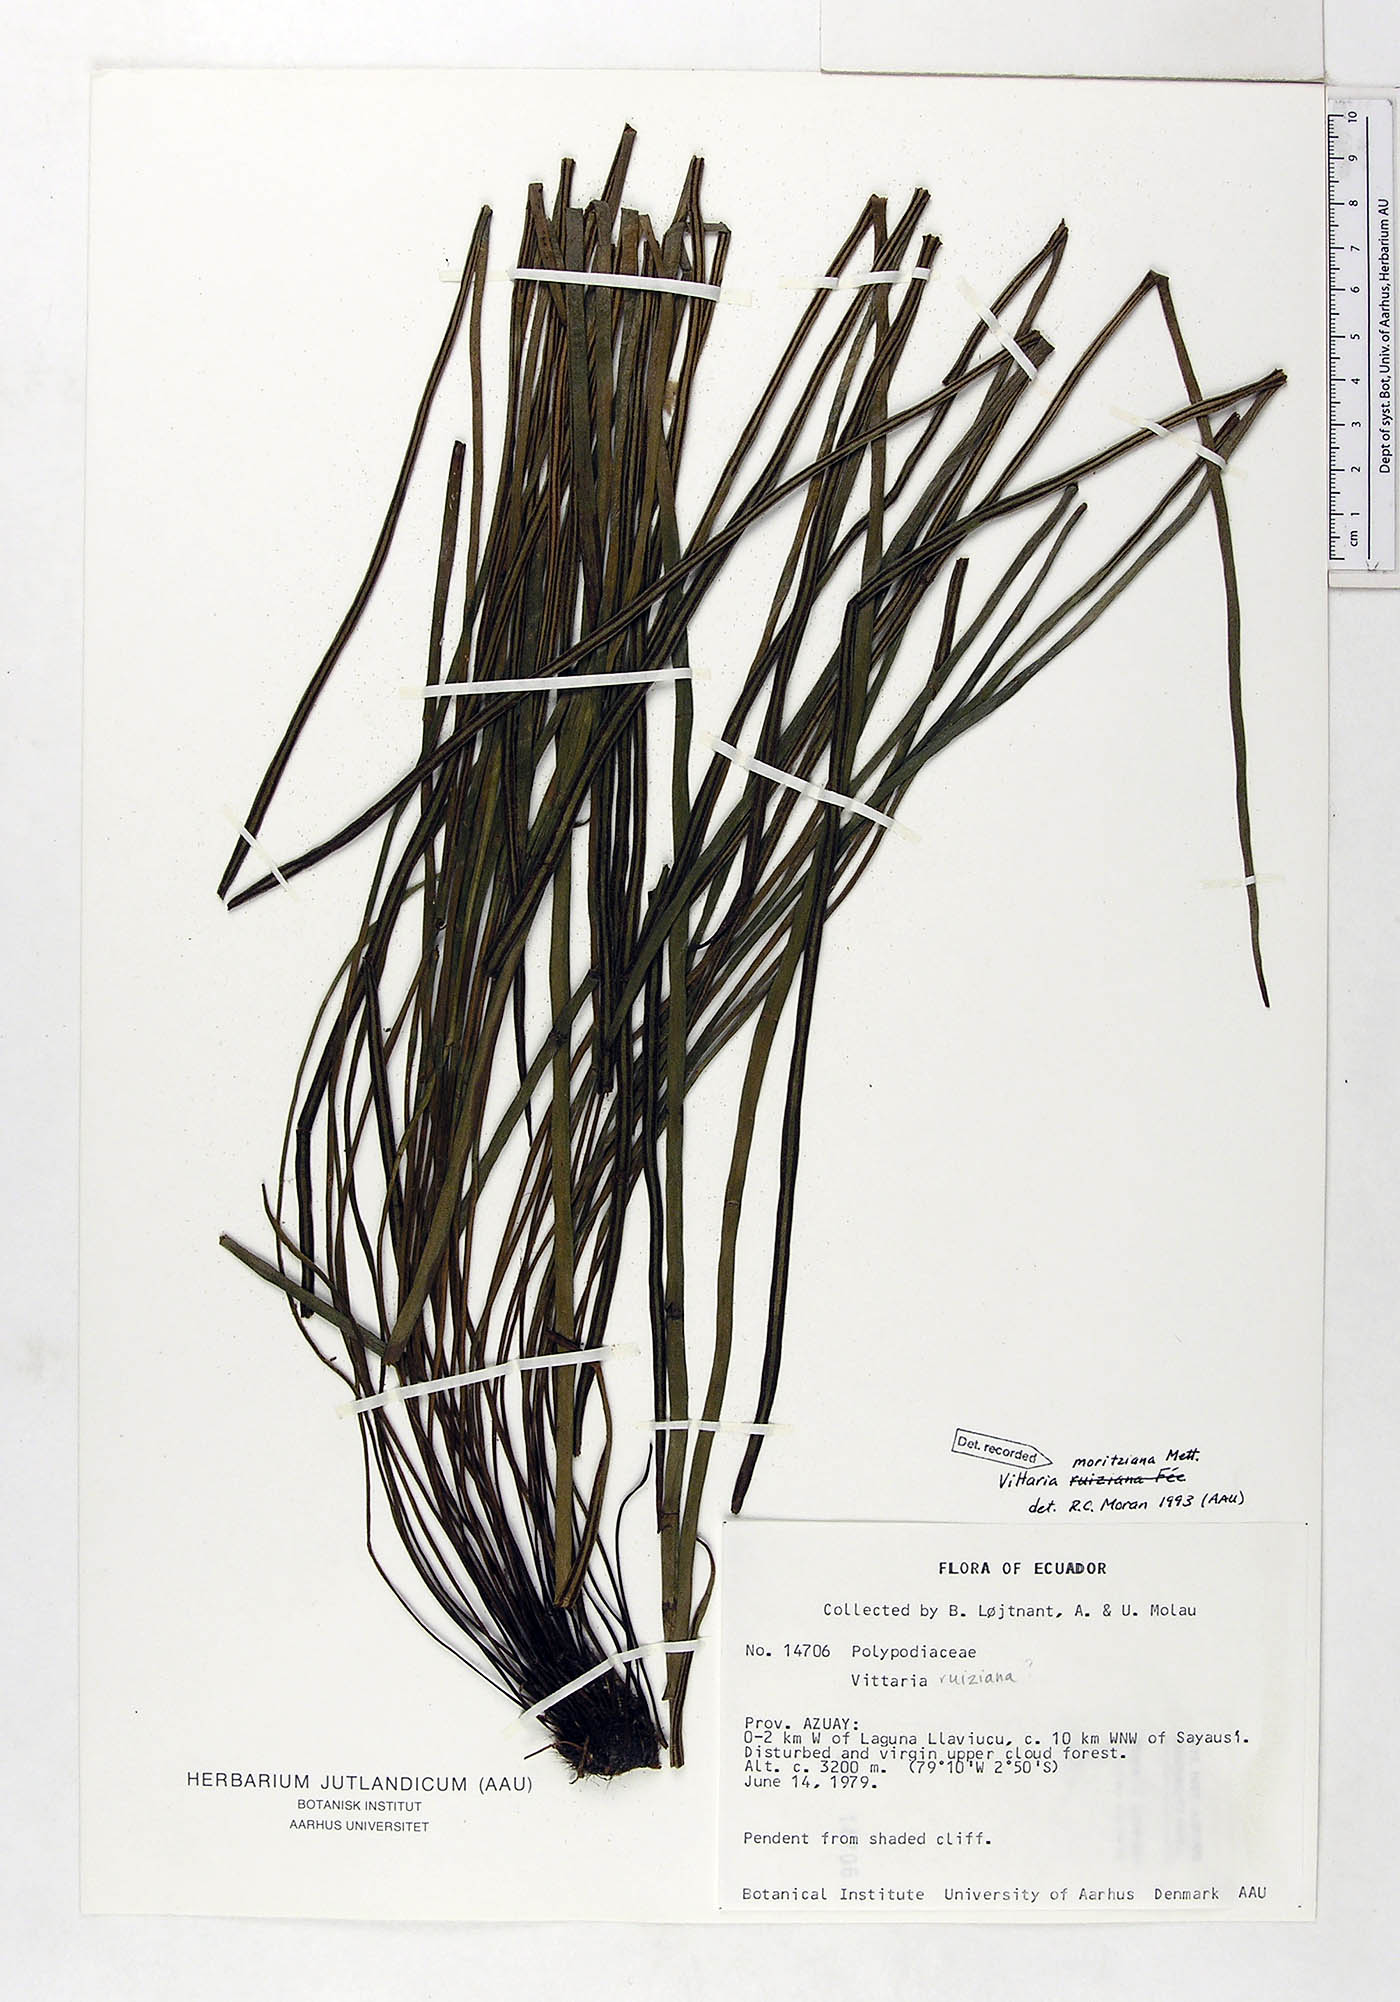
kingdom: Plantae
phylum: Tracheophyta
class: Polypodiopsida
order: Polypodiales
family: Pteridaceae
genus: Radiovittaria
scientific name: Radiovittaria moritziana
